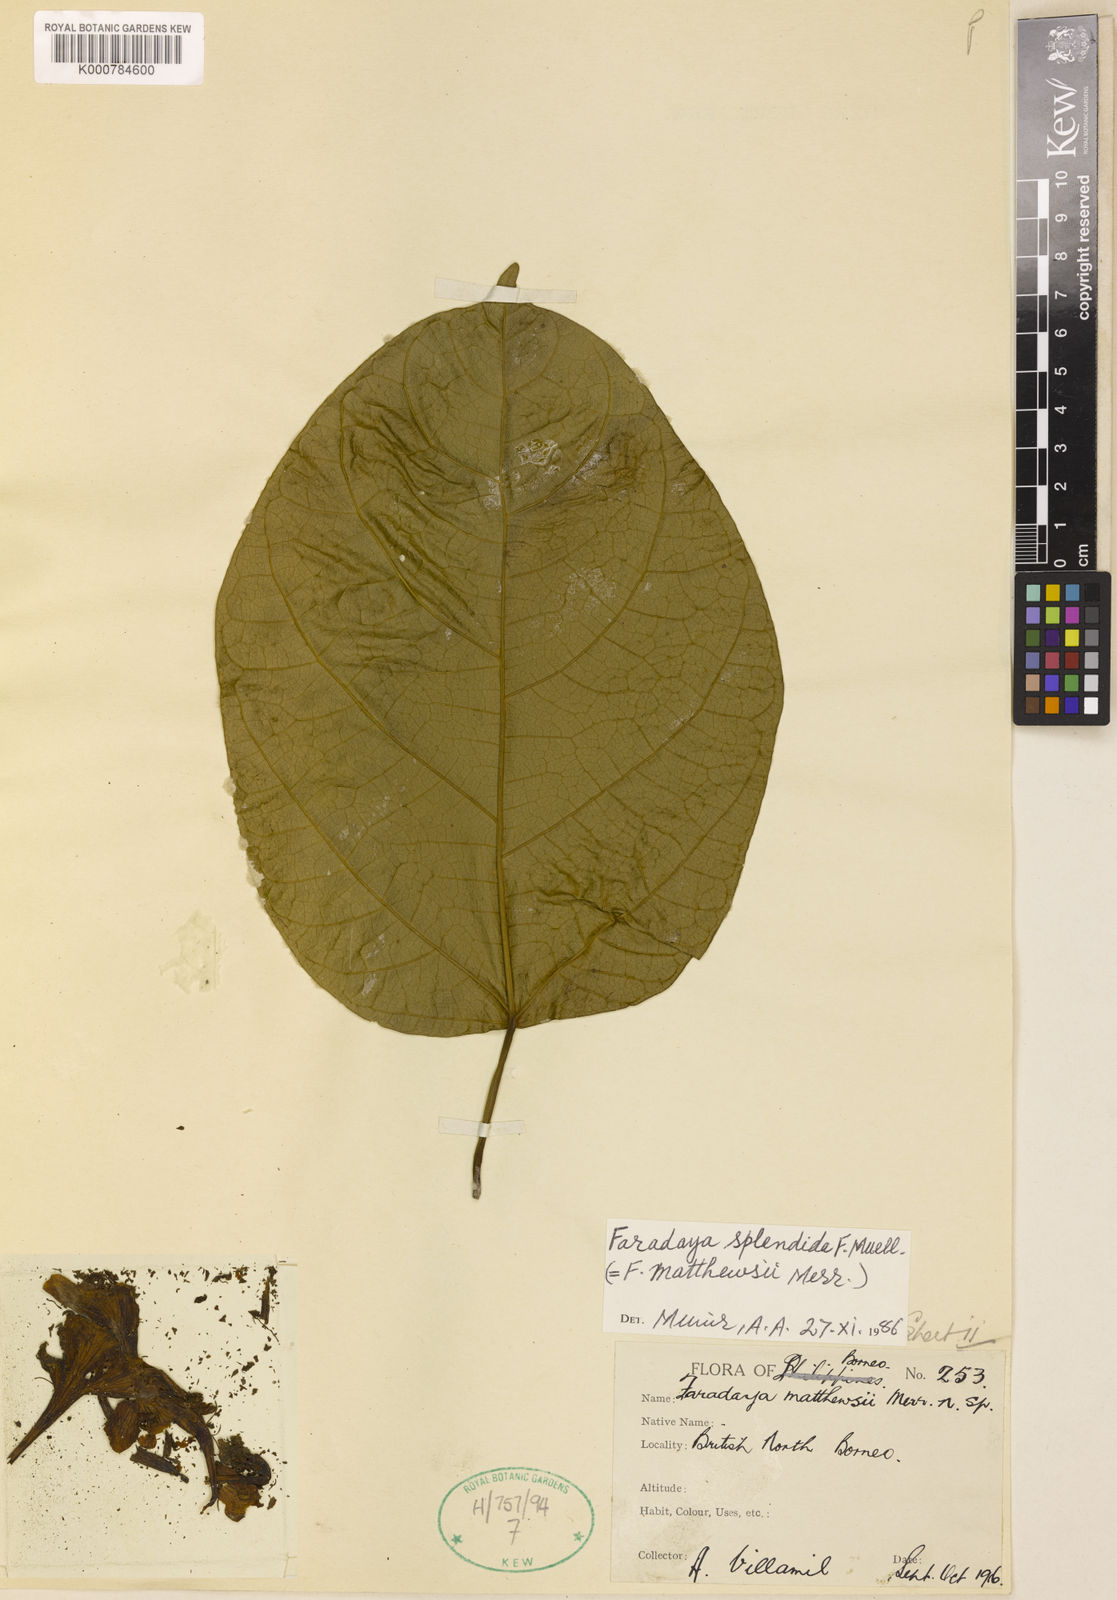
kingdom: Plantae
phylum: Tracheophyta
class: Magnoliopsida
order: Lamiales
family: Lamiaceae
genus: Oxera
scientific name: Oxera splendida
